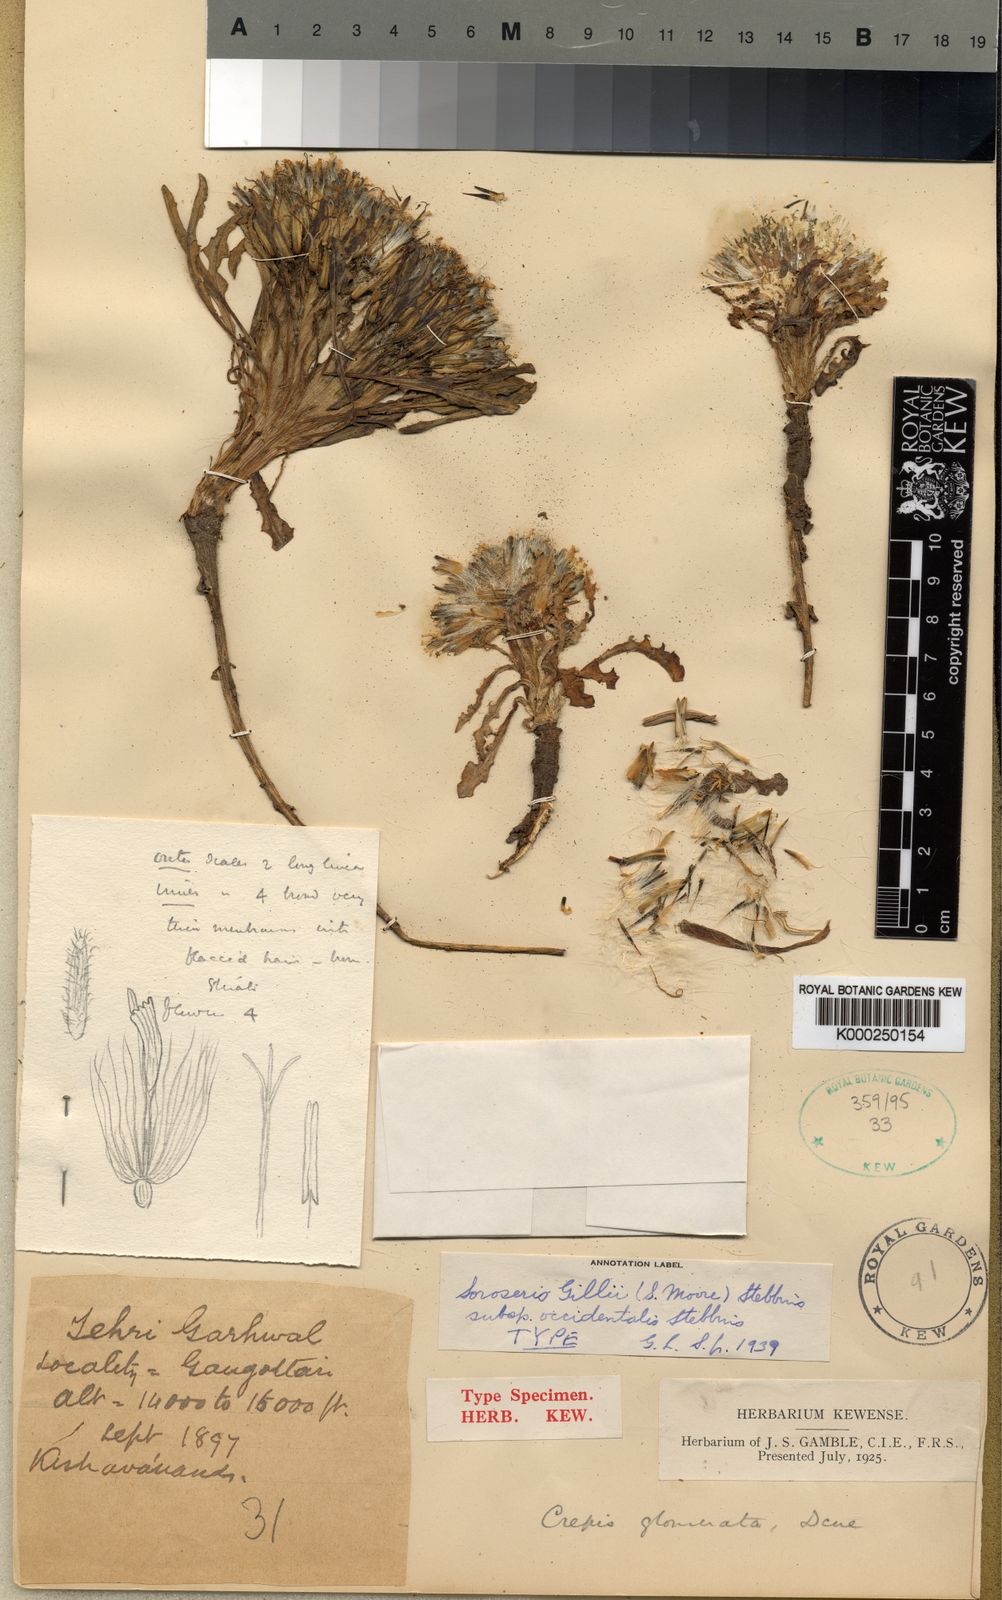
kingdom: Plantae
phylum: Tracheophyta
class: Magnoliopsida
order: Asterales
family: Asteraceae
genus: Soroseris
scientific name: Soroseris hookeriana
